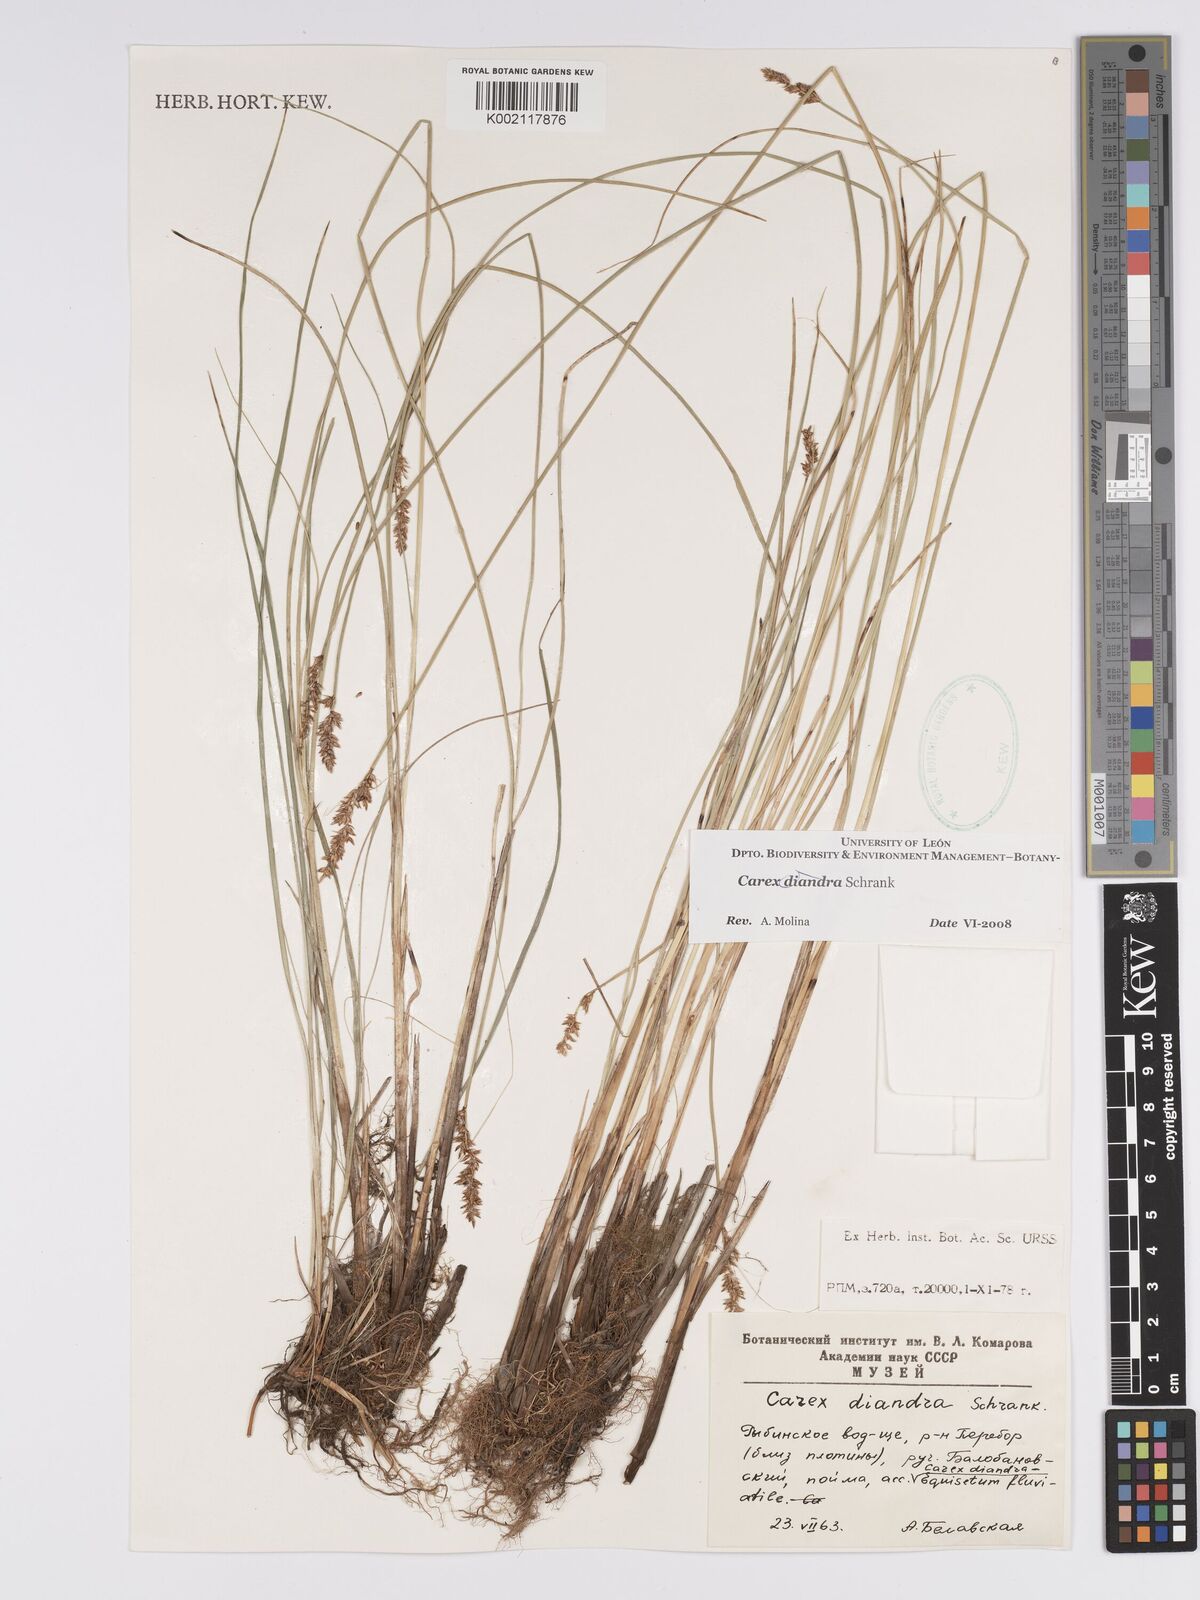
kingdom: Plantae
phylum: Tracheophyta
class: Liliopsida
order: Poales
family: Cyperaceae
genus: Carex
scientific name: Carex diandra
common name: Lesser tussock-sedge
